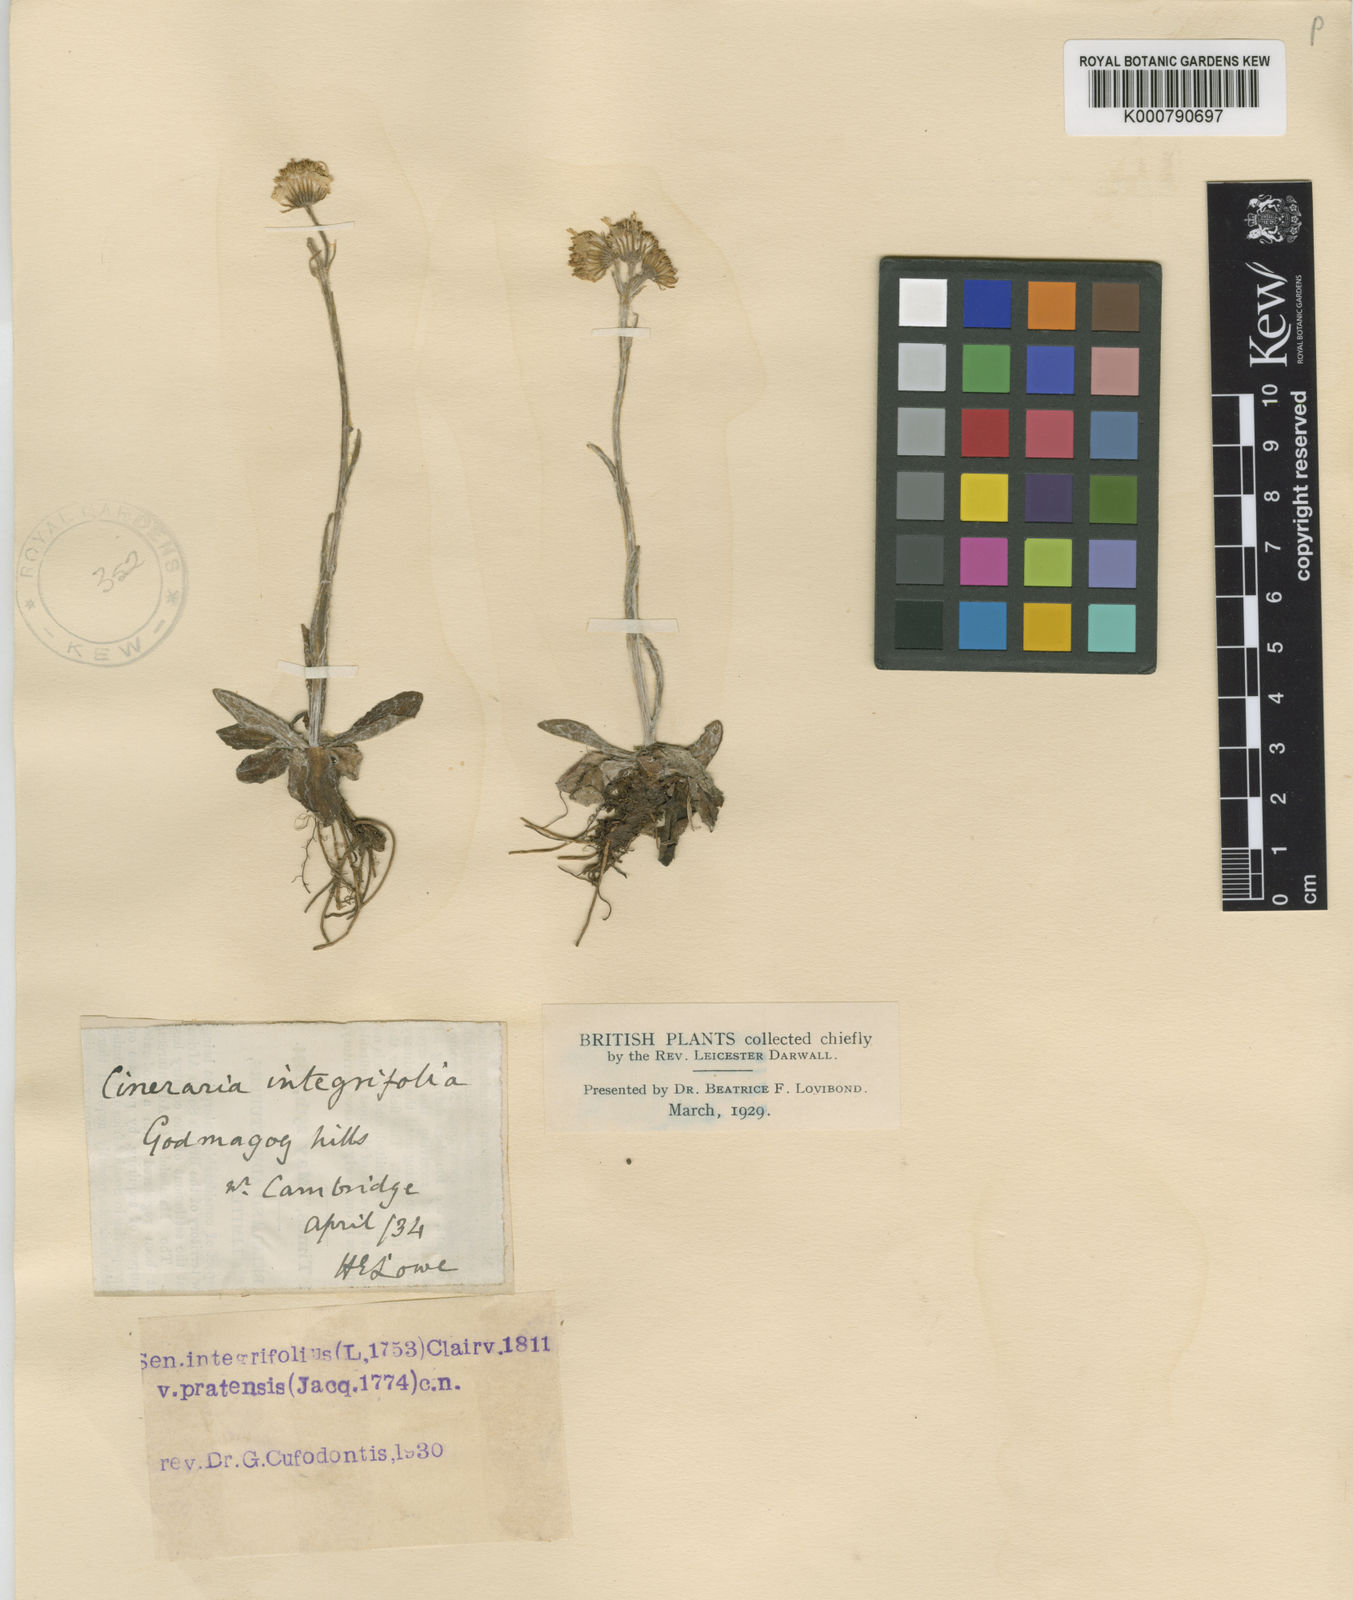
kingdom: Plantae
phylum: Tracheophyta
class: Magnoliopsida
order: Asterales
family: Asteraceae
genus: Tephroseris
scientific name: Tephroseris integrifolia
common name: Field fleawort
